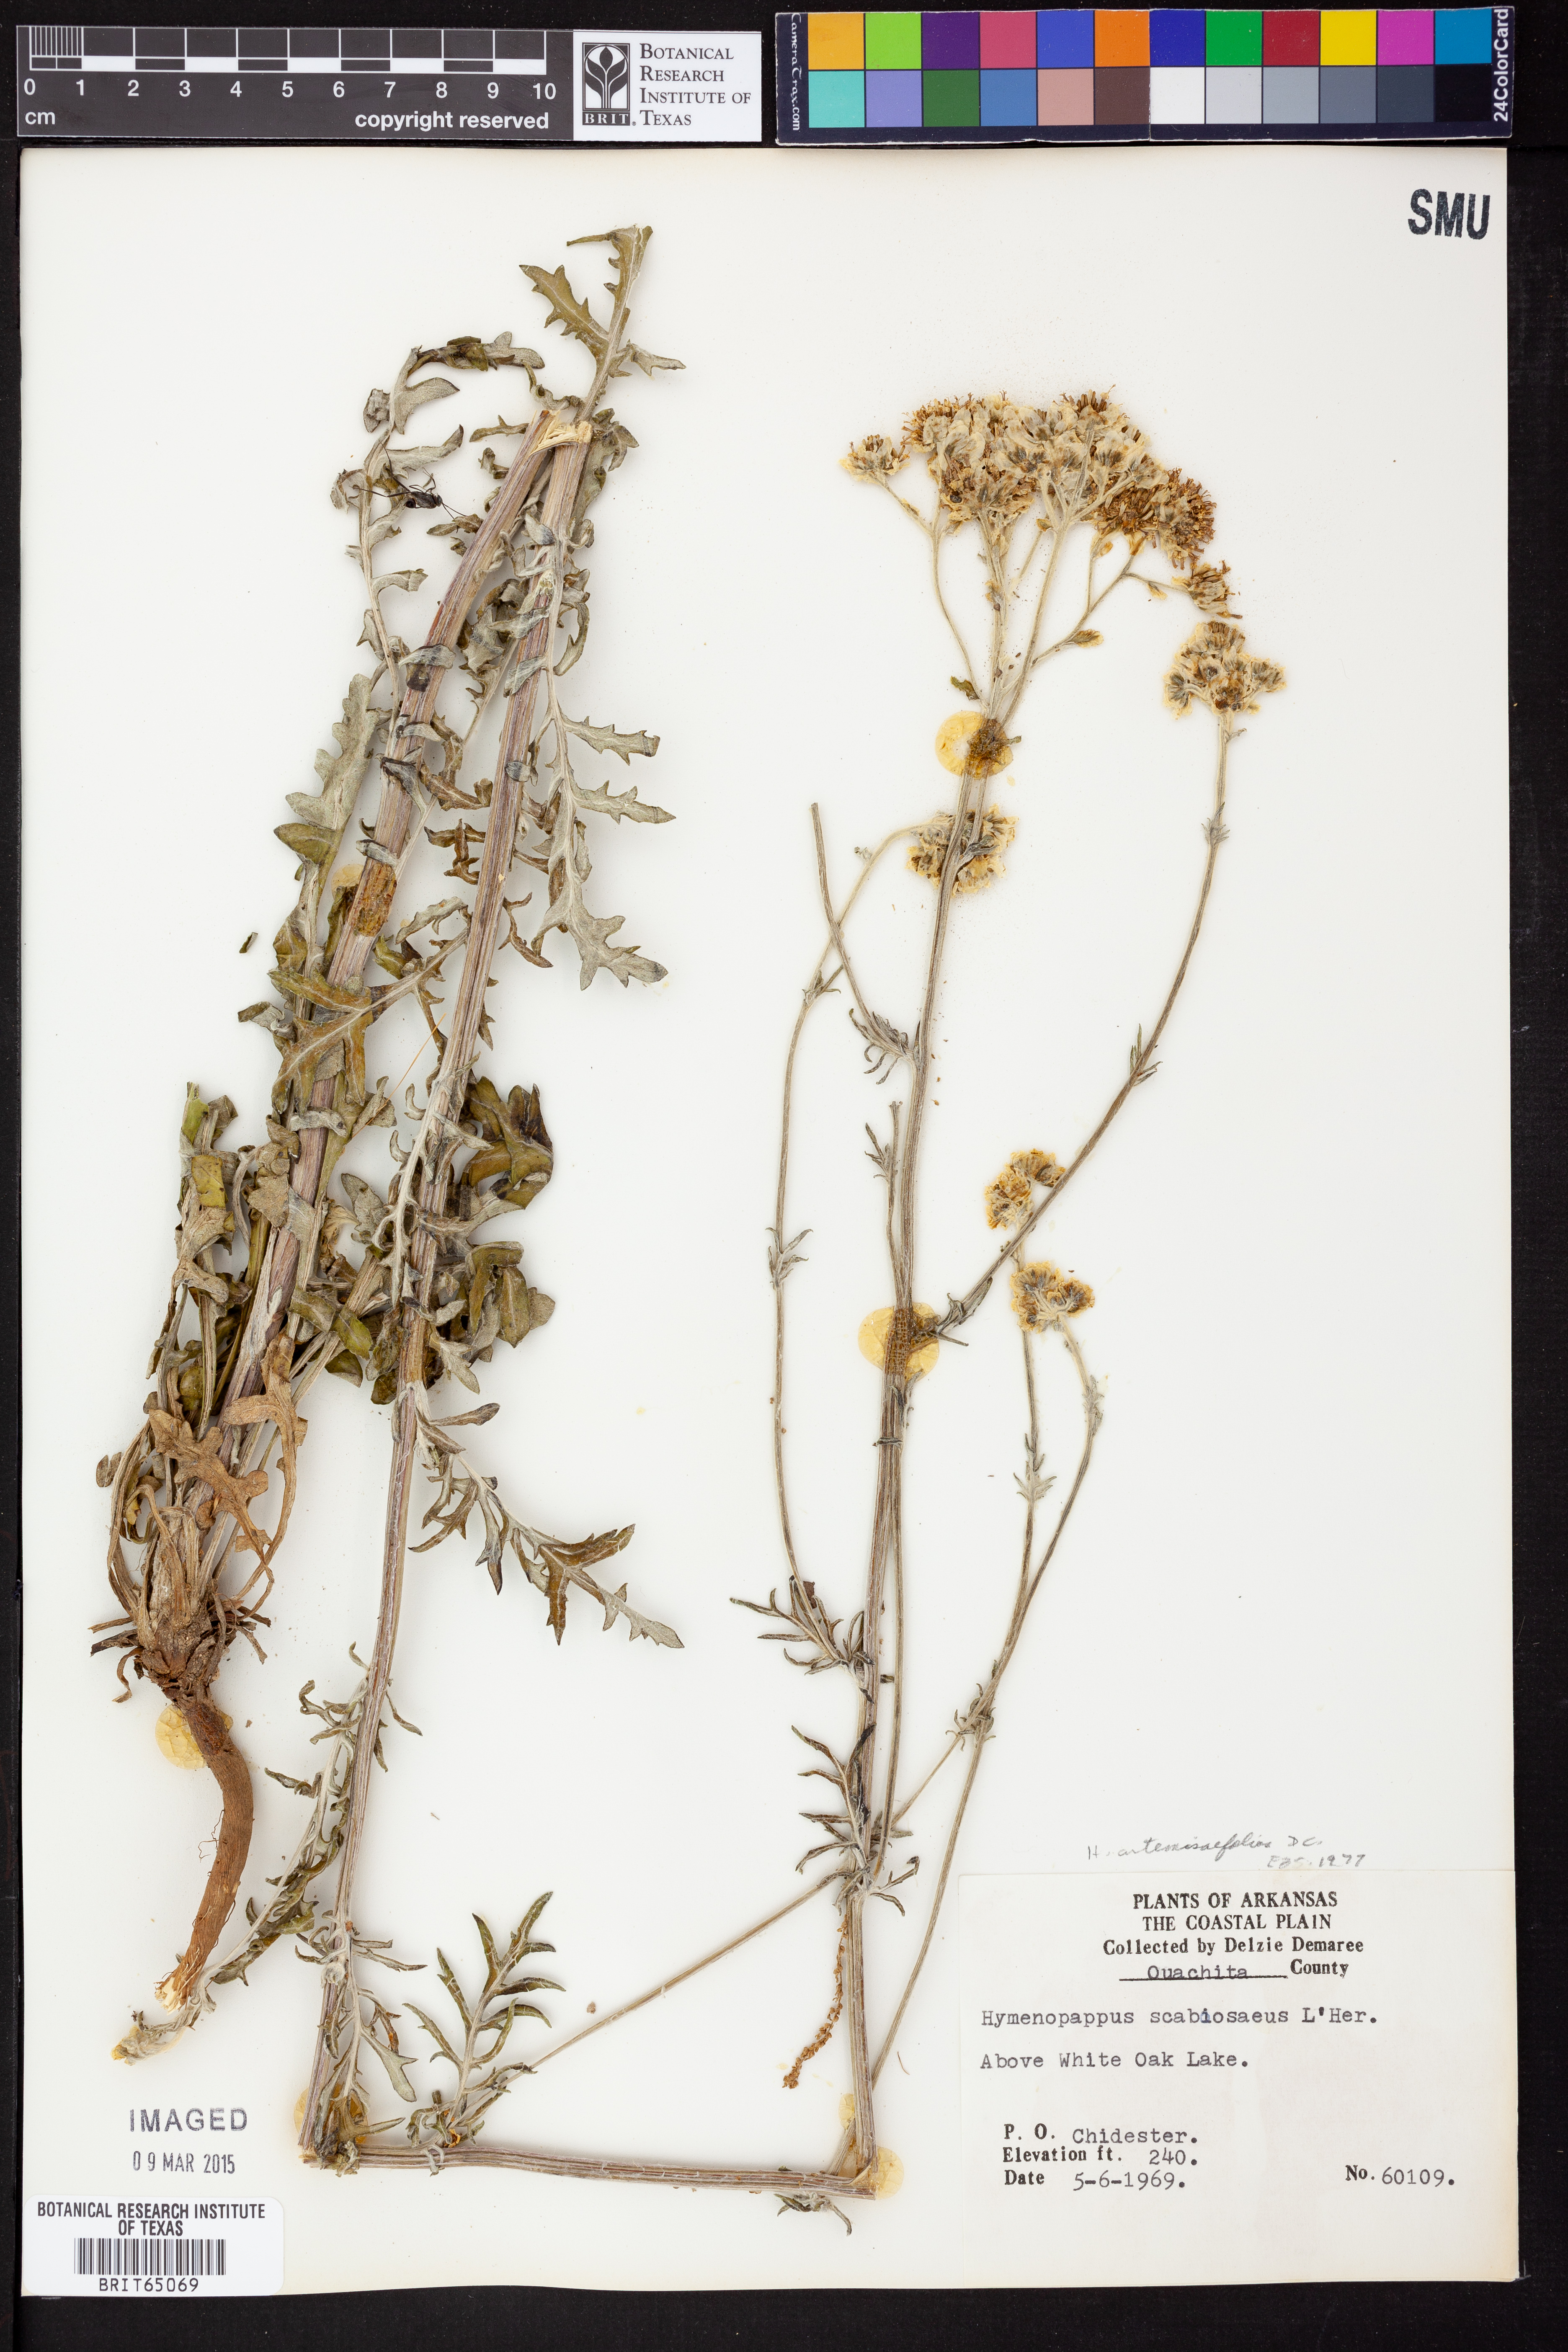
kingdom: Plantae
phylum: Tracheophyta
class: Magnoliopsida
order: Asterales
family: Asteraceae
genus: Hymenopappus
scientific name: Hymenopappus artemisiifolius
